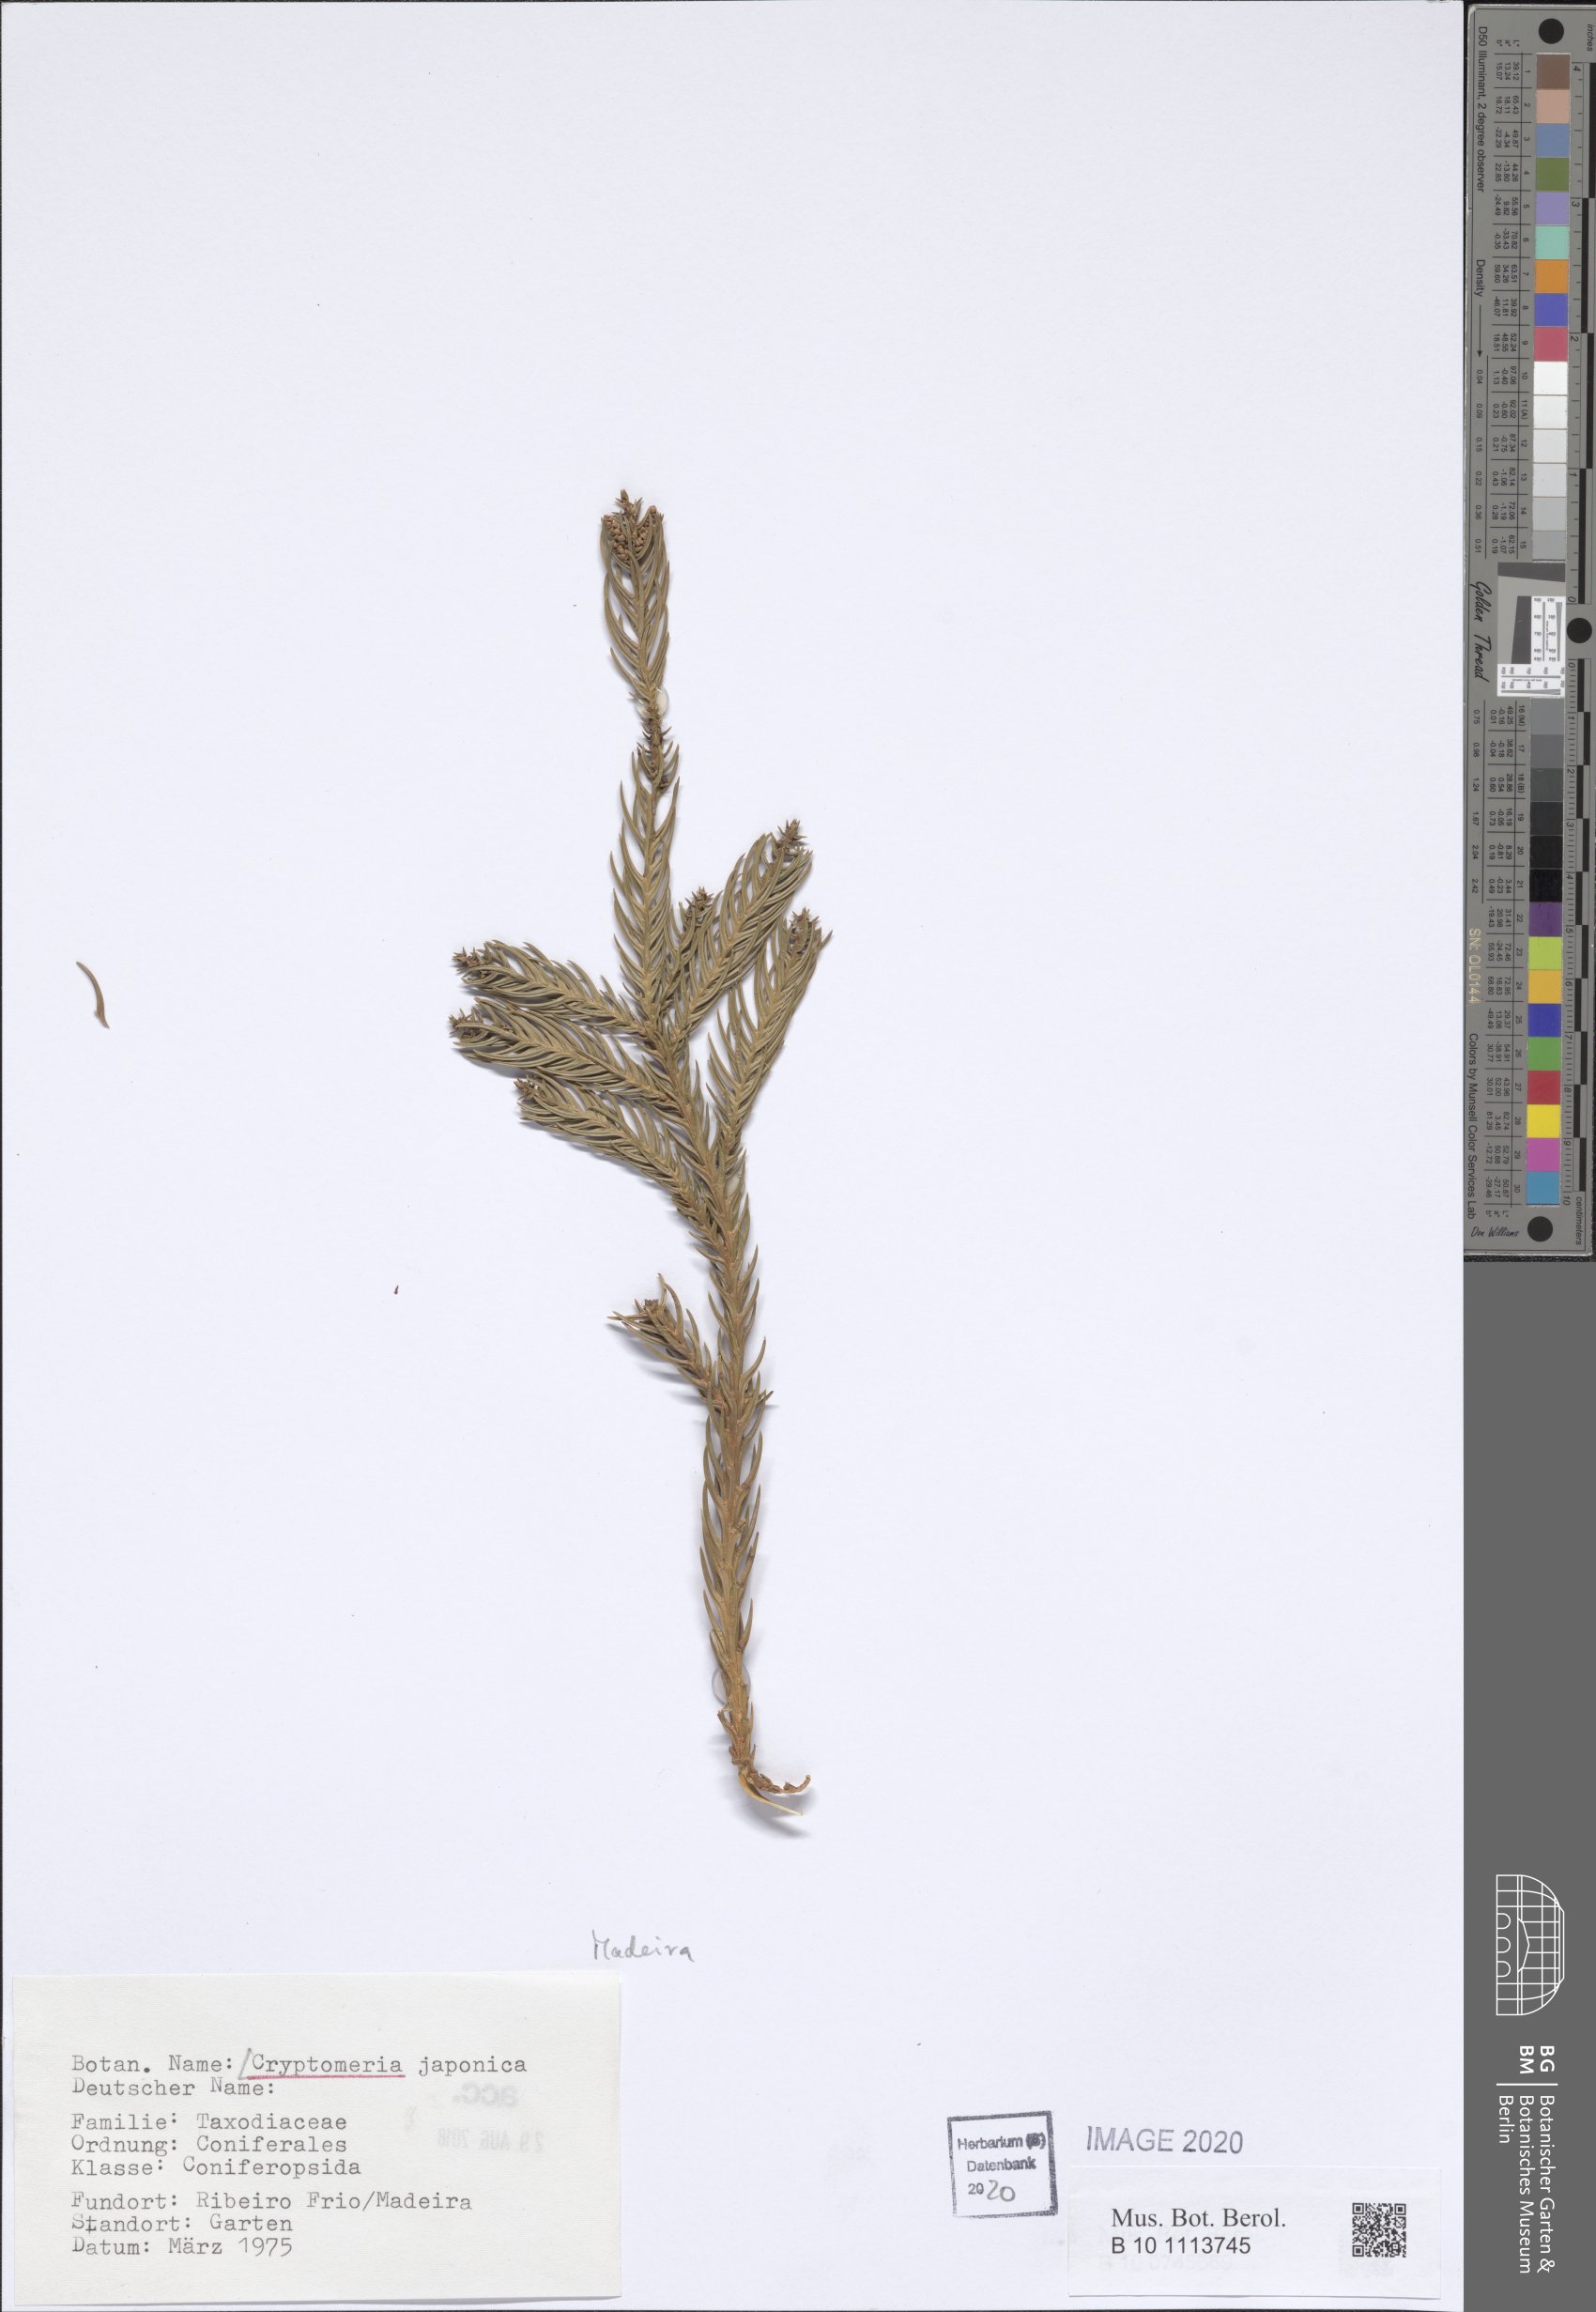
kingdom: Plantae
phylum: Tracheophyta
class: Pinopsida
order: Pinales
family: Cupressaceae
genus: Cryptomeria
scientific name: Cryptomeria japonica
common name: Japanese cedar
